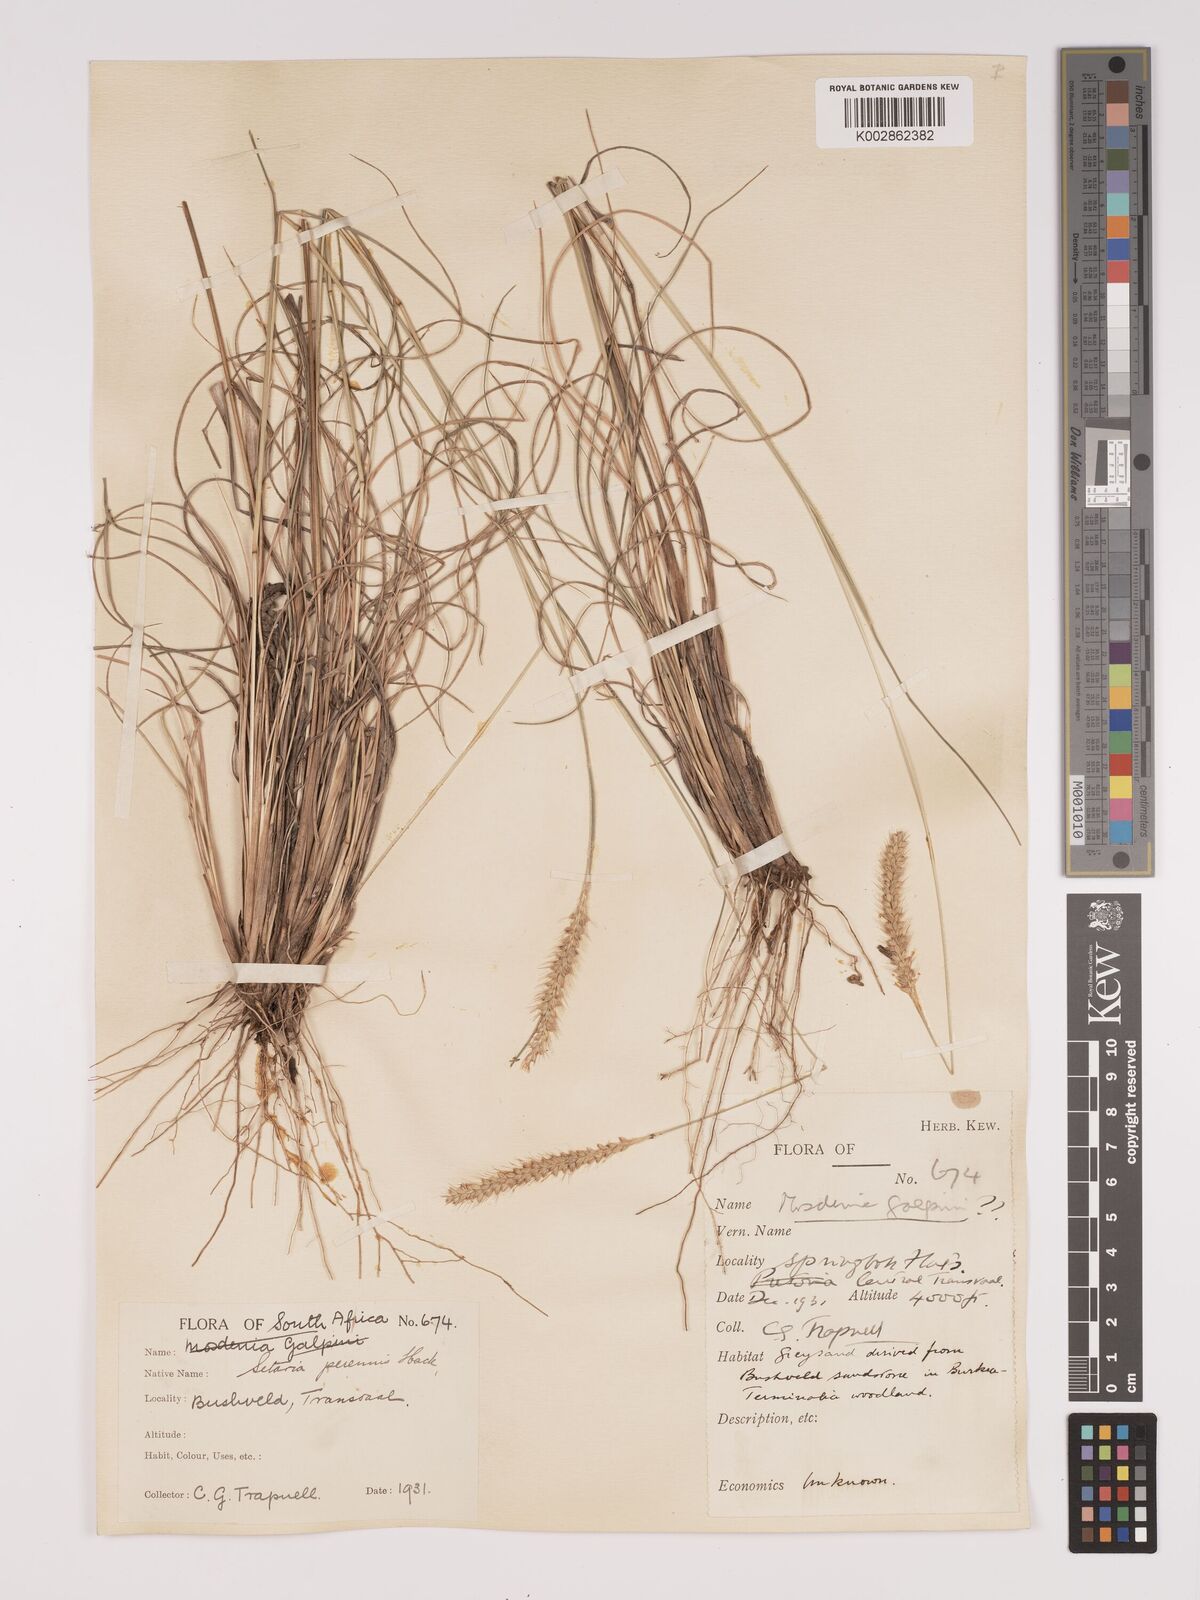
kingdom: Plantae
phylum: Tracheophyta
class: Liliopsida
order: Poales
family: Poaceae
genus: Setaria
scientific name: Setaria sphacelata
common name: African bristlegrass
